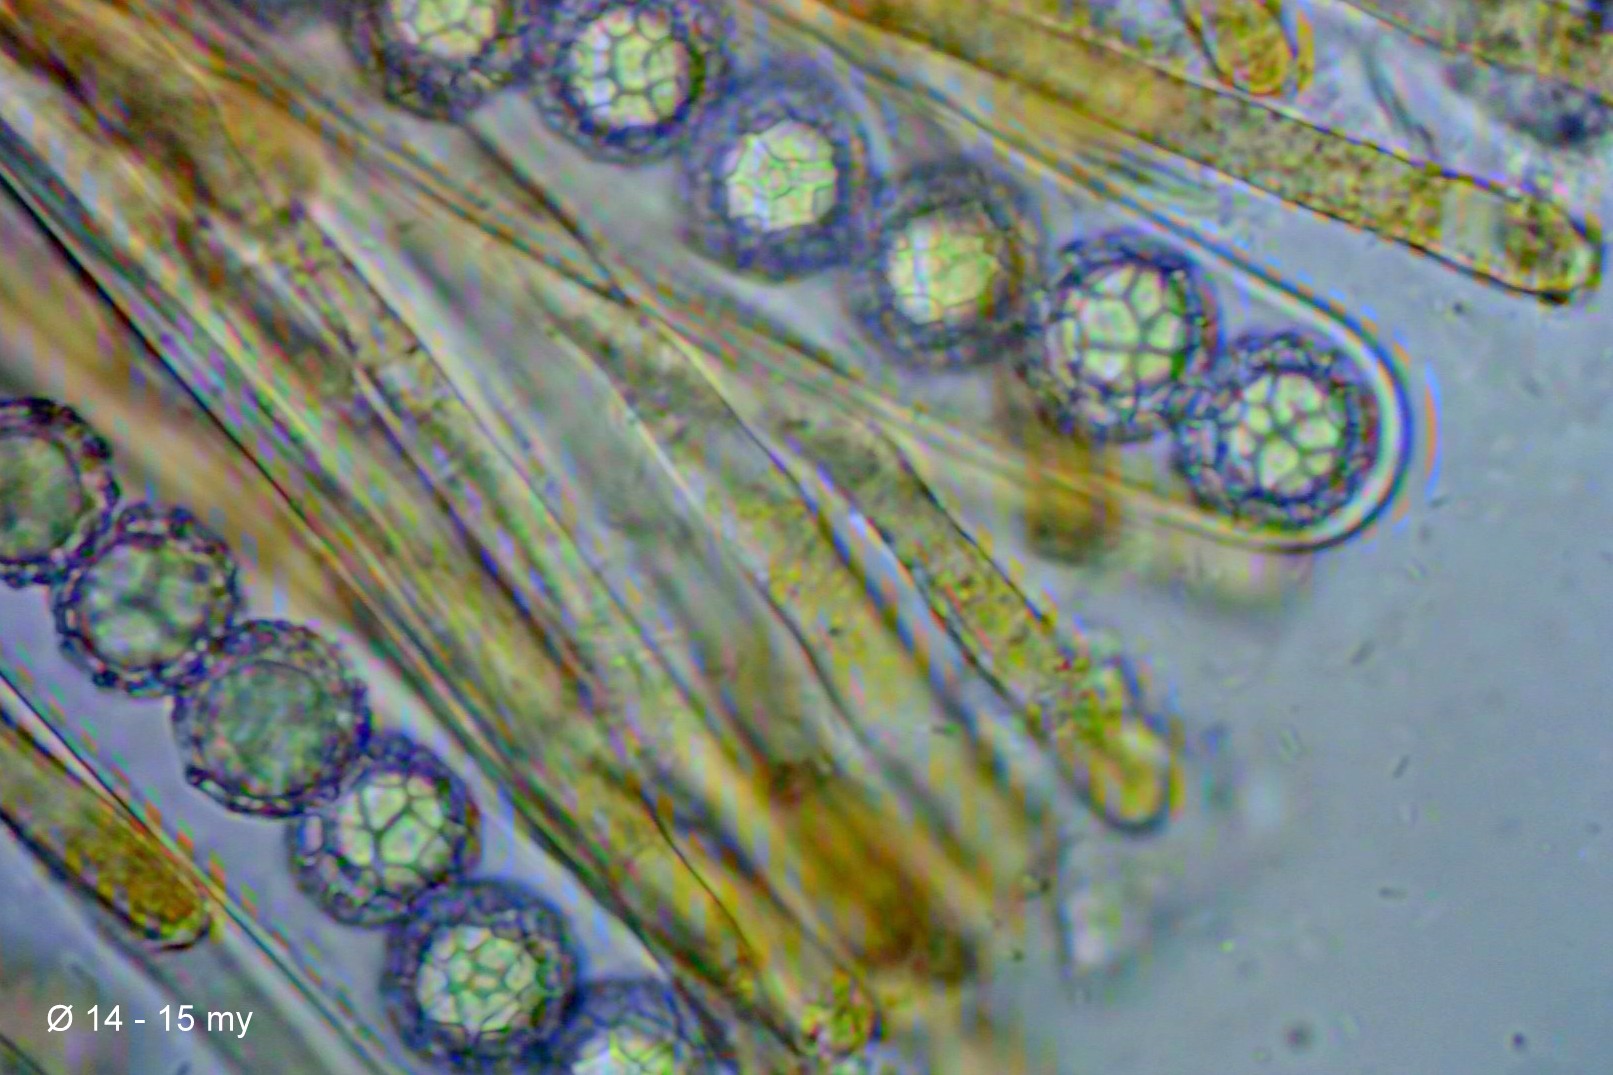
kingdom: Fungi
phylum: Ascomycota
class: Pezizomycetes
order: Pezizales
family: Pyronemataceae
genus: Lamprospora
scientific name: Lamprospora miniata
